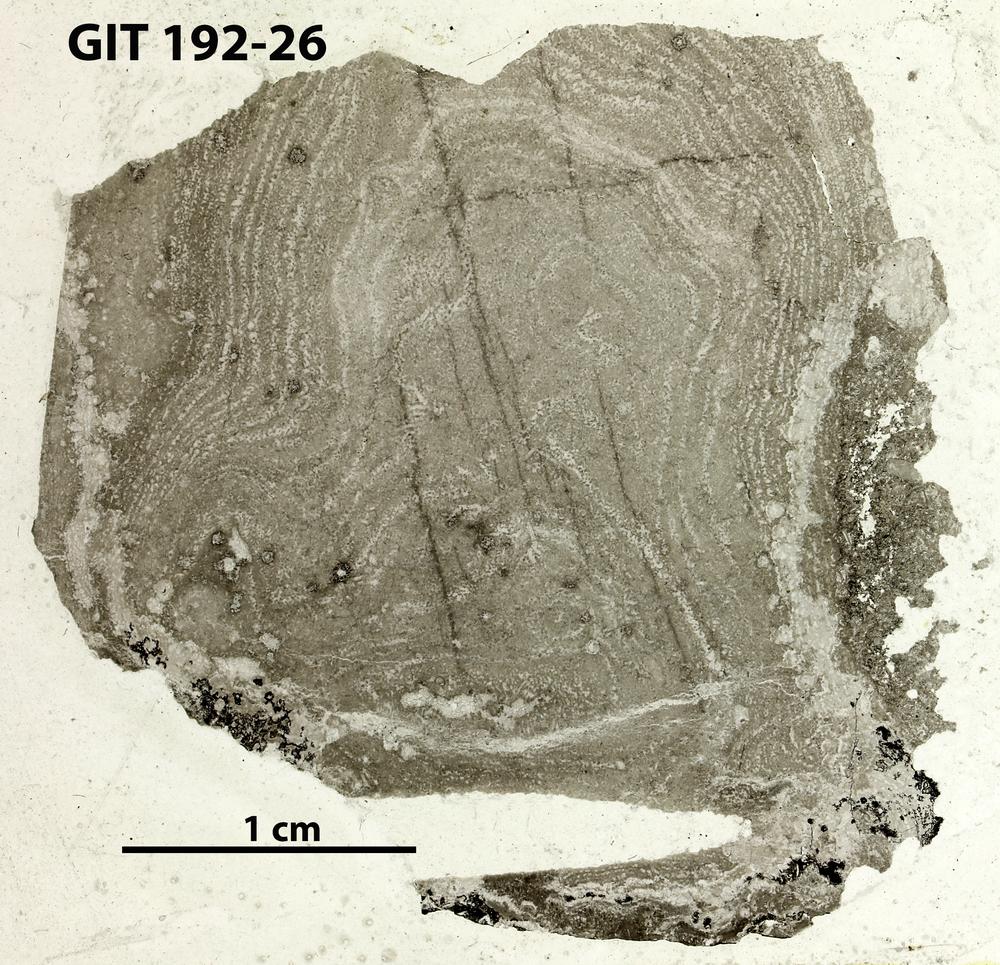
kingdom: Animalia
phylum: Porifera
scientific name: Porifera
